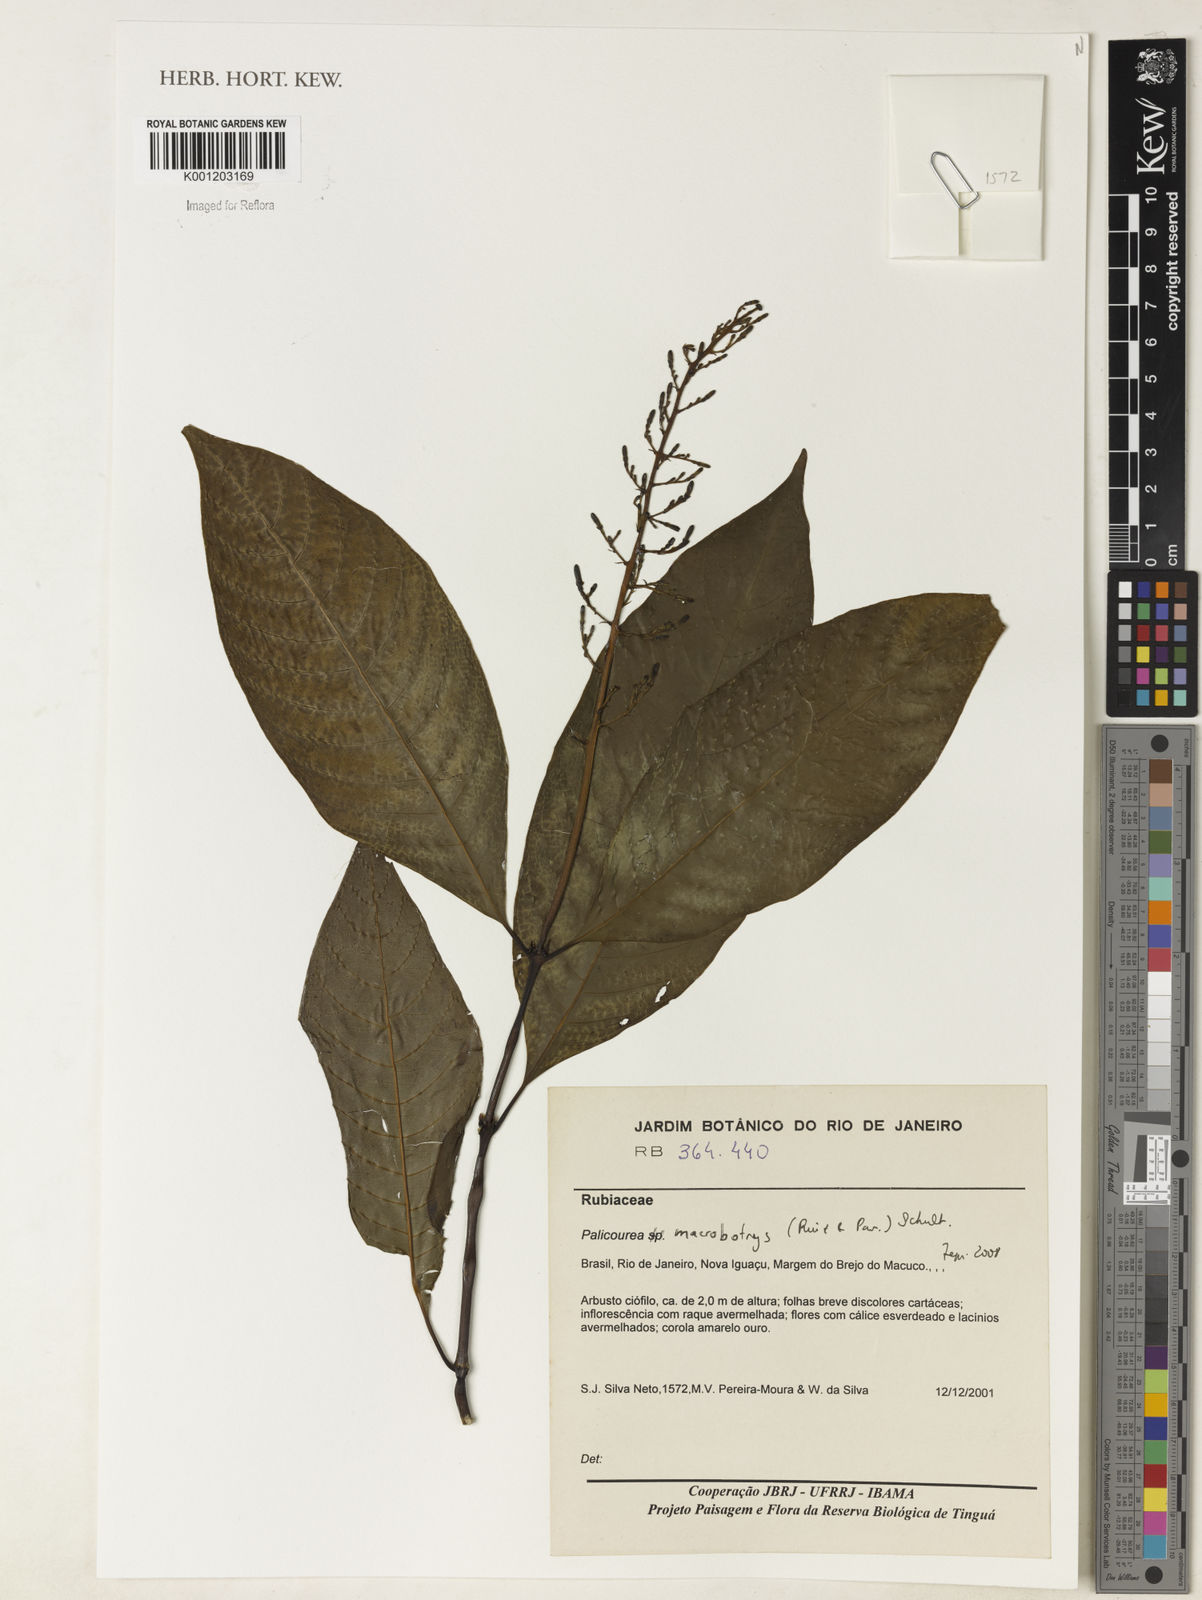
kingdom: Plantae
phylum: Tracheophyta
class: Magnoliopsida
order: Gentianales
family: Rubiaceae
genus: Palicourea
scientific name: Palicourea macrobotrys
